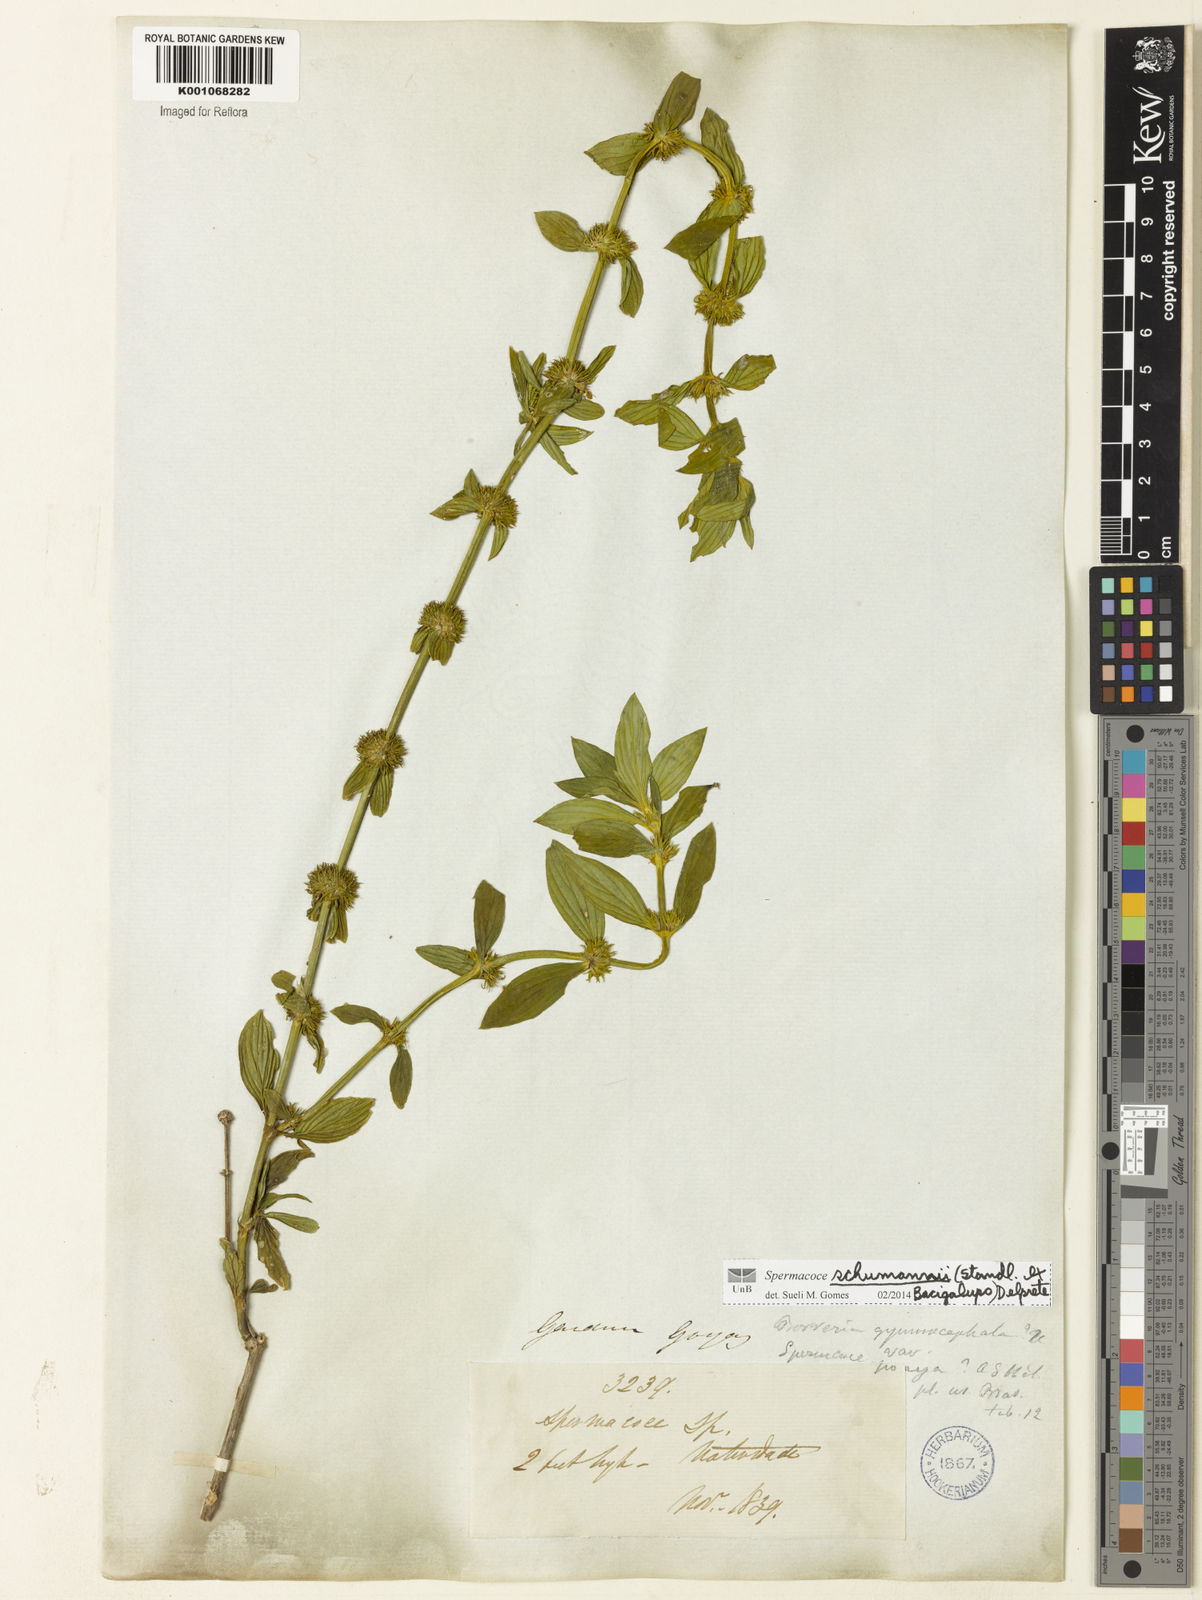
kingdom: Plantae
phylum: Tracheophyta
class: Magnoliopsida
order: Gentianales
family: Rubiaceae
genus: Spermacoce
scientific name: Spermacoce schumannii
